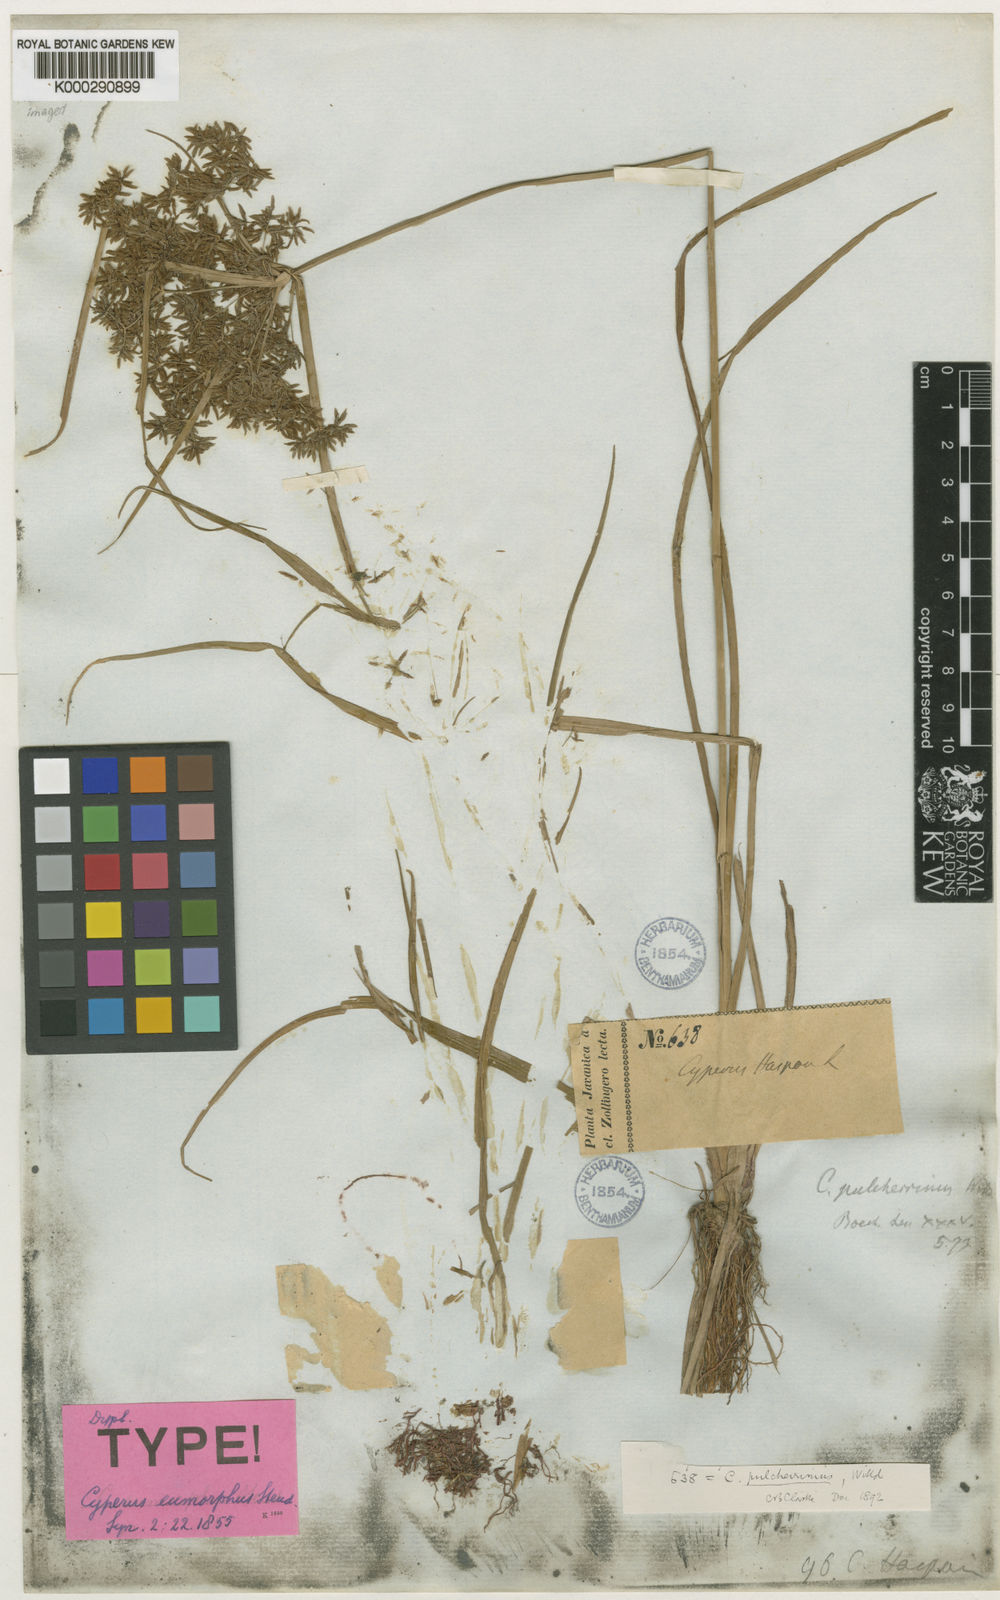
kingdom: Plantae
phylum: Tracheophyta
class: Liliopsida
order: Poales
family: Cyperaceae
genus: Cyperus
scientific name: Cyperus pulcherrimus
